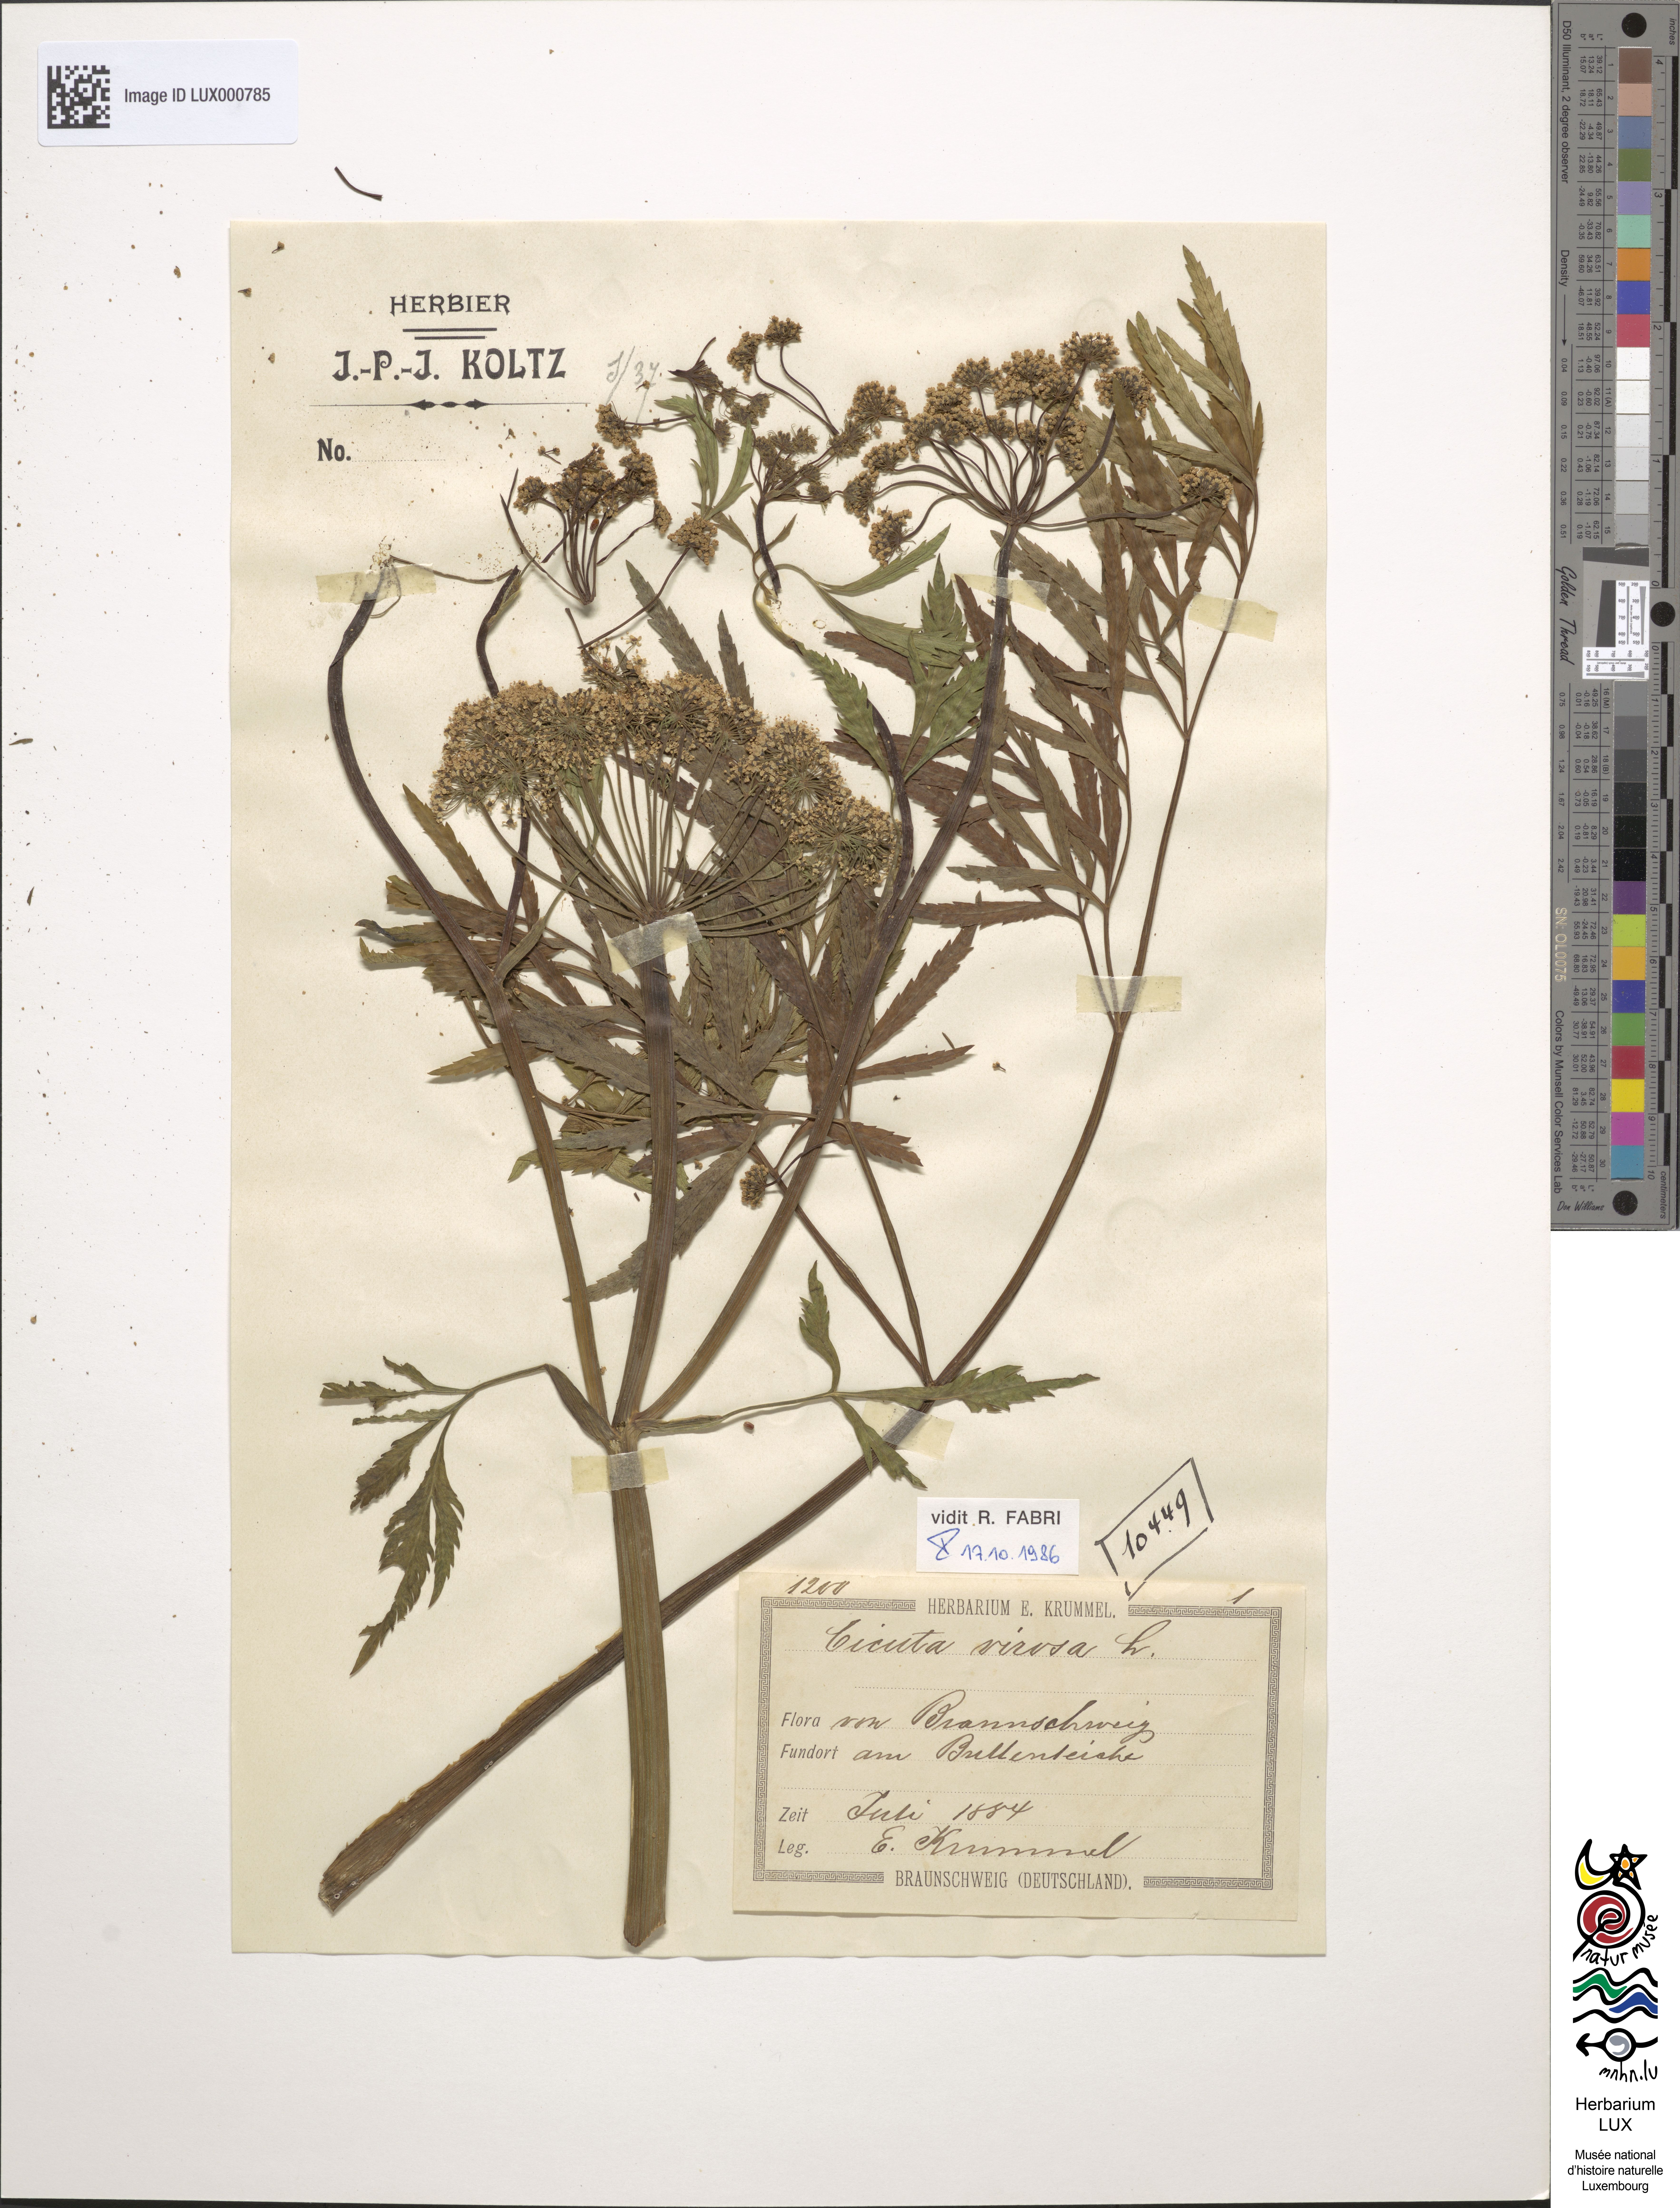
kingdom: Plantae
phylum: Tracheophyta
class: Magnoliopsida
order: Apiales
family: Apiaceae
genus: Cicuta
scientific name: Cicuta virosa
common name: Cowbane
